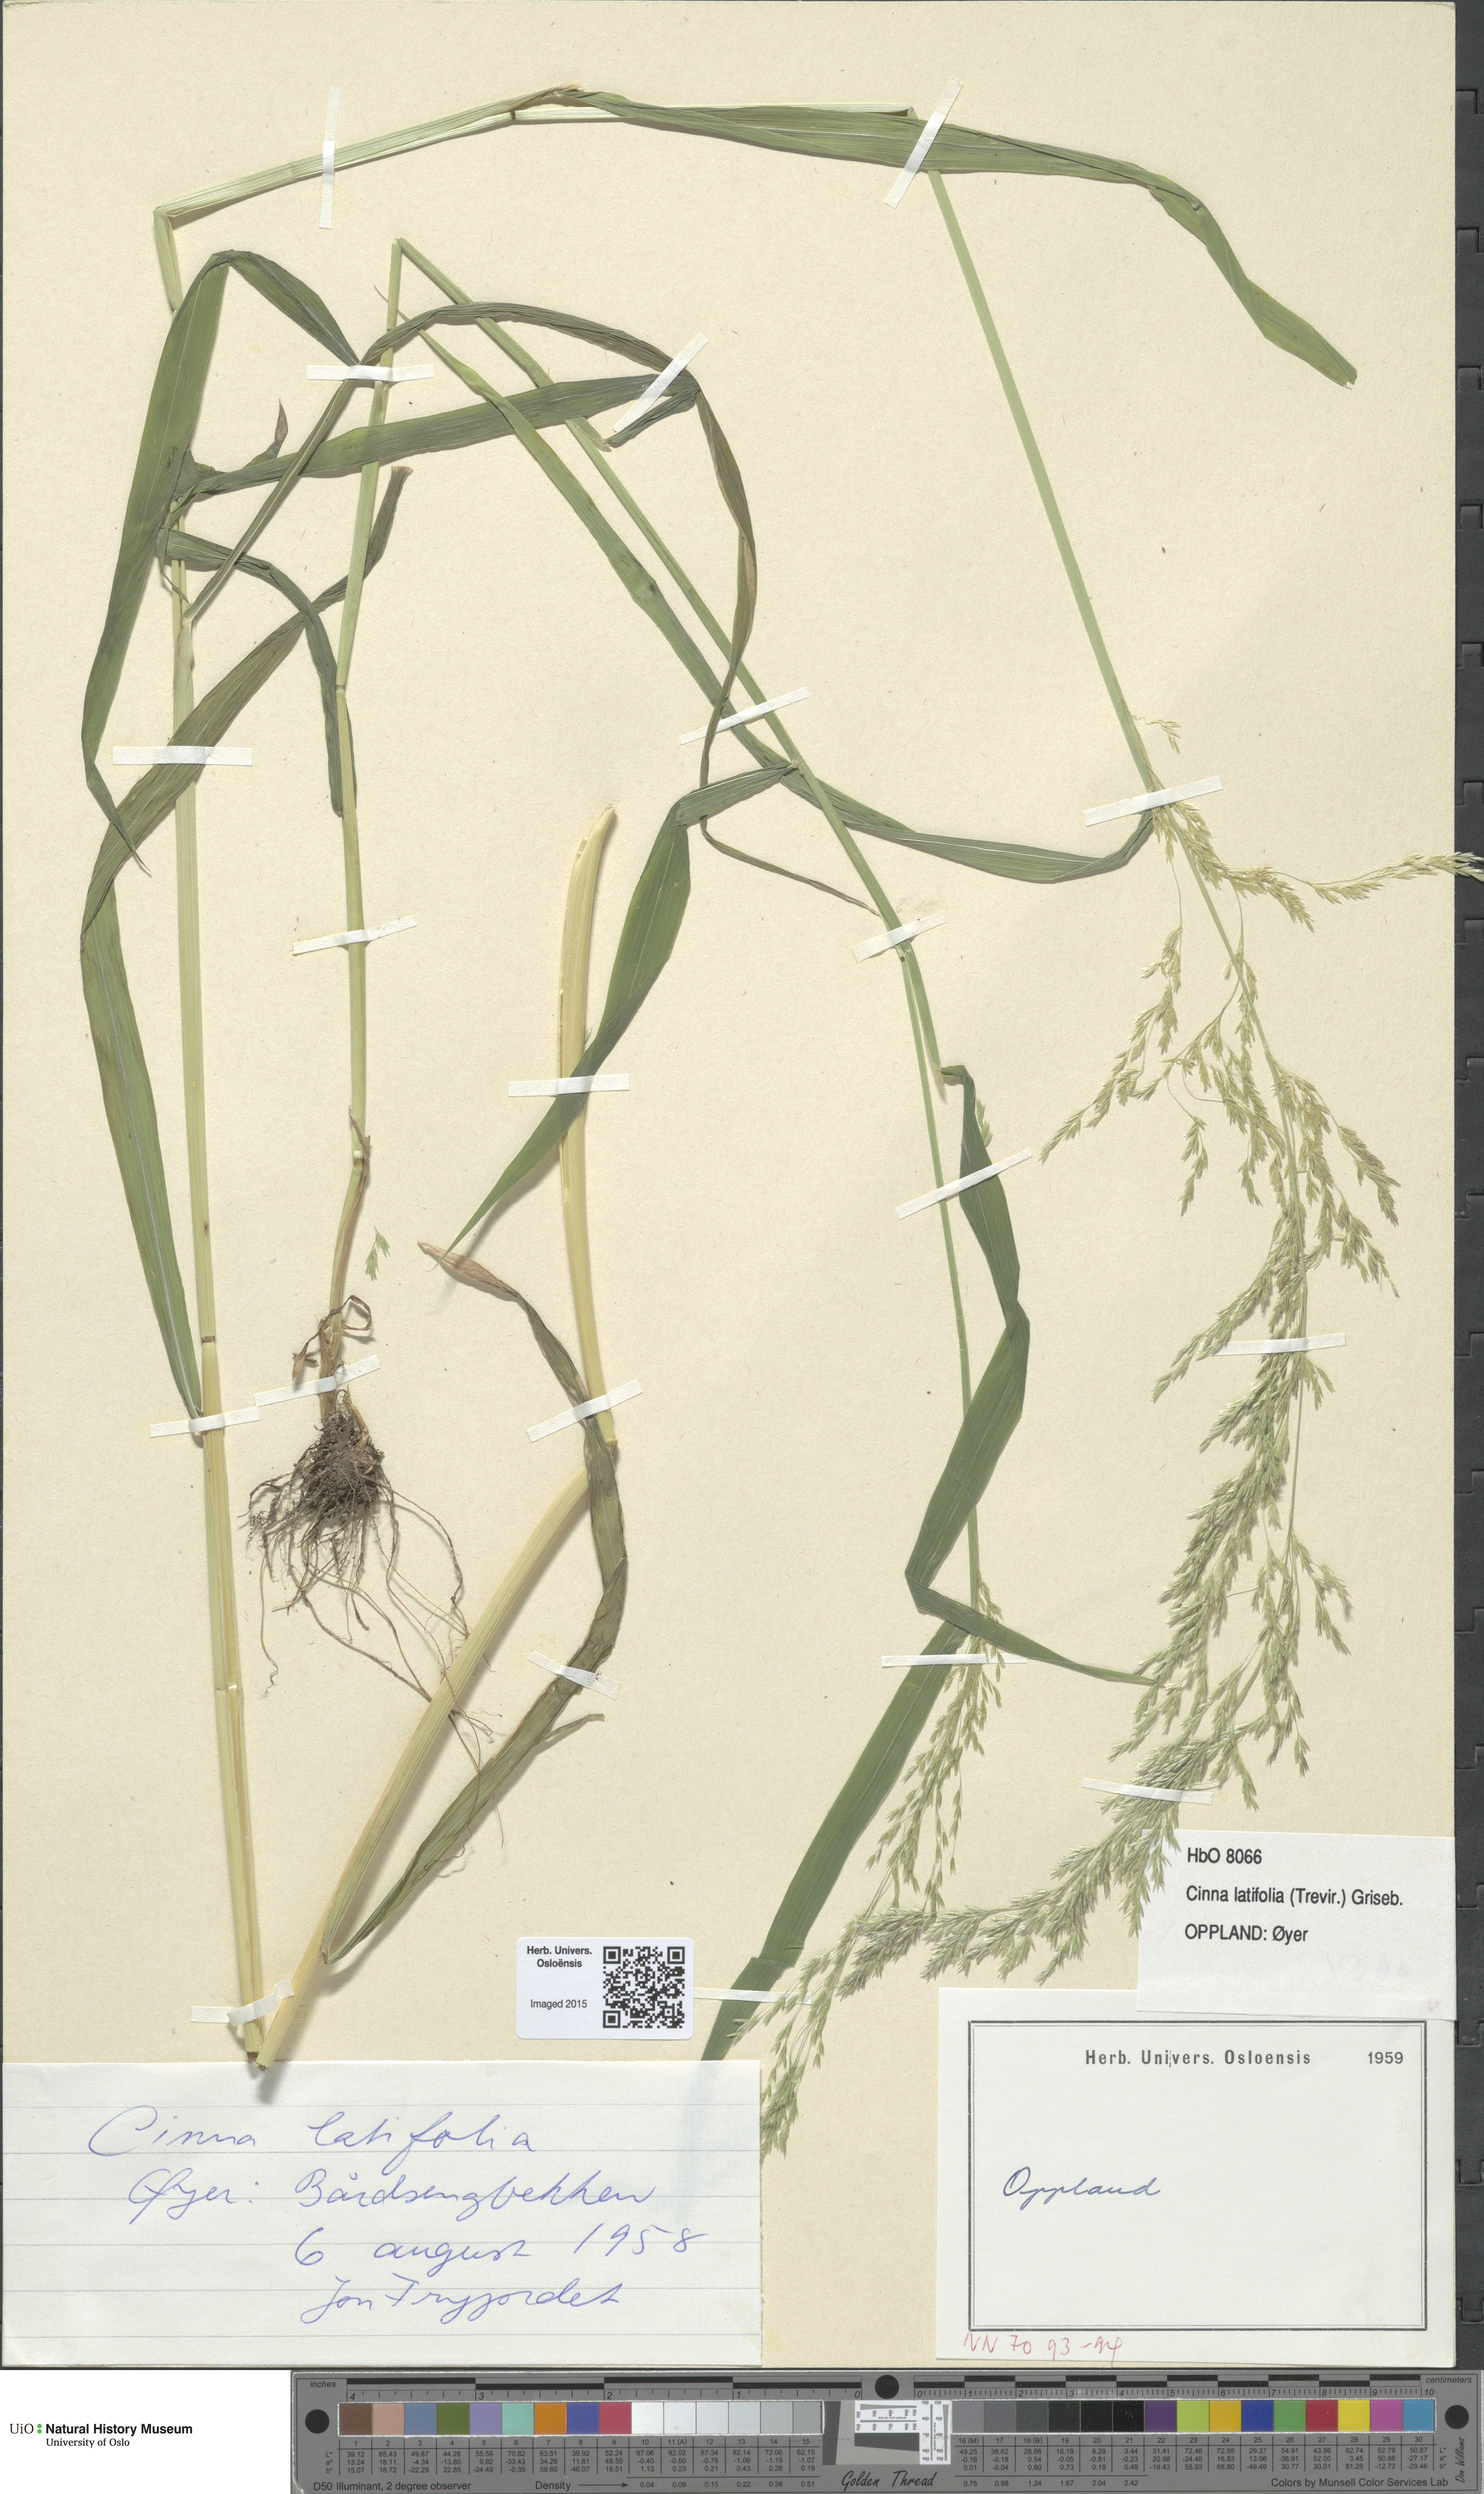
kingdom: Plantae
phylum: Tracheophyta
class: Liliopsida
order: Poales
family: Poaceae
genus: Cinna
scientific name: Cinna latifolia
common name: Drooping woodreed
